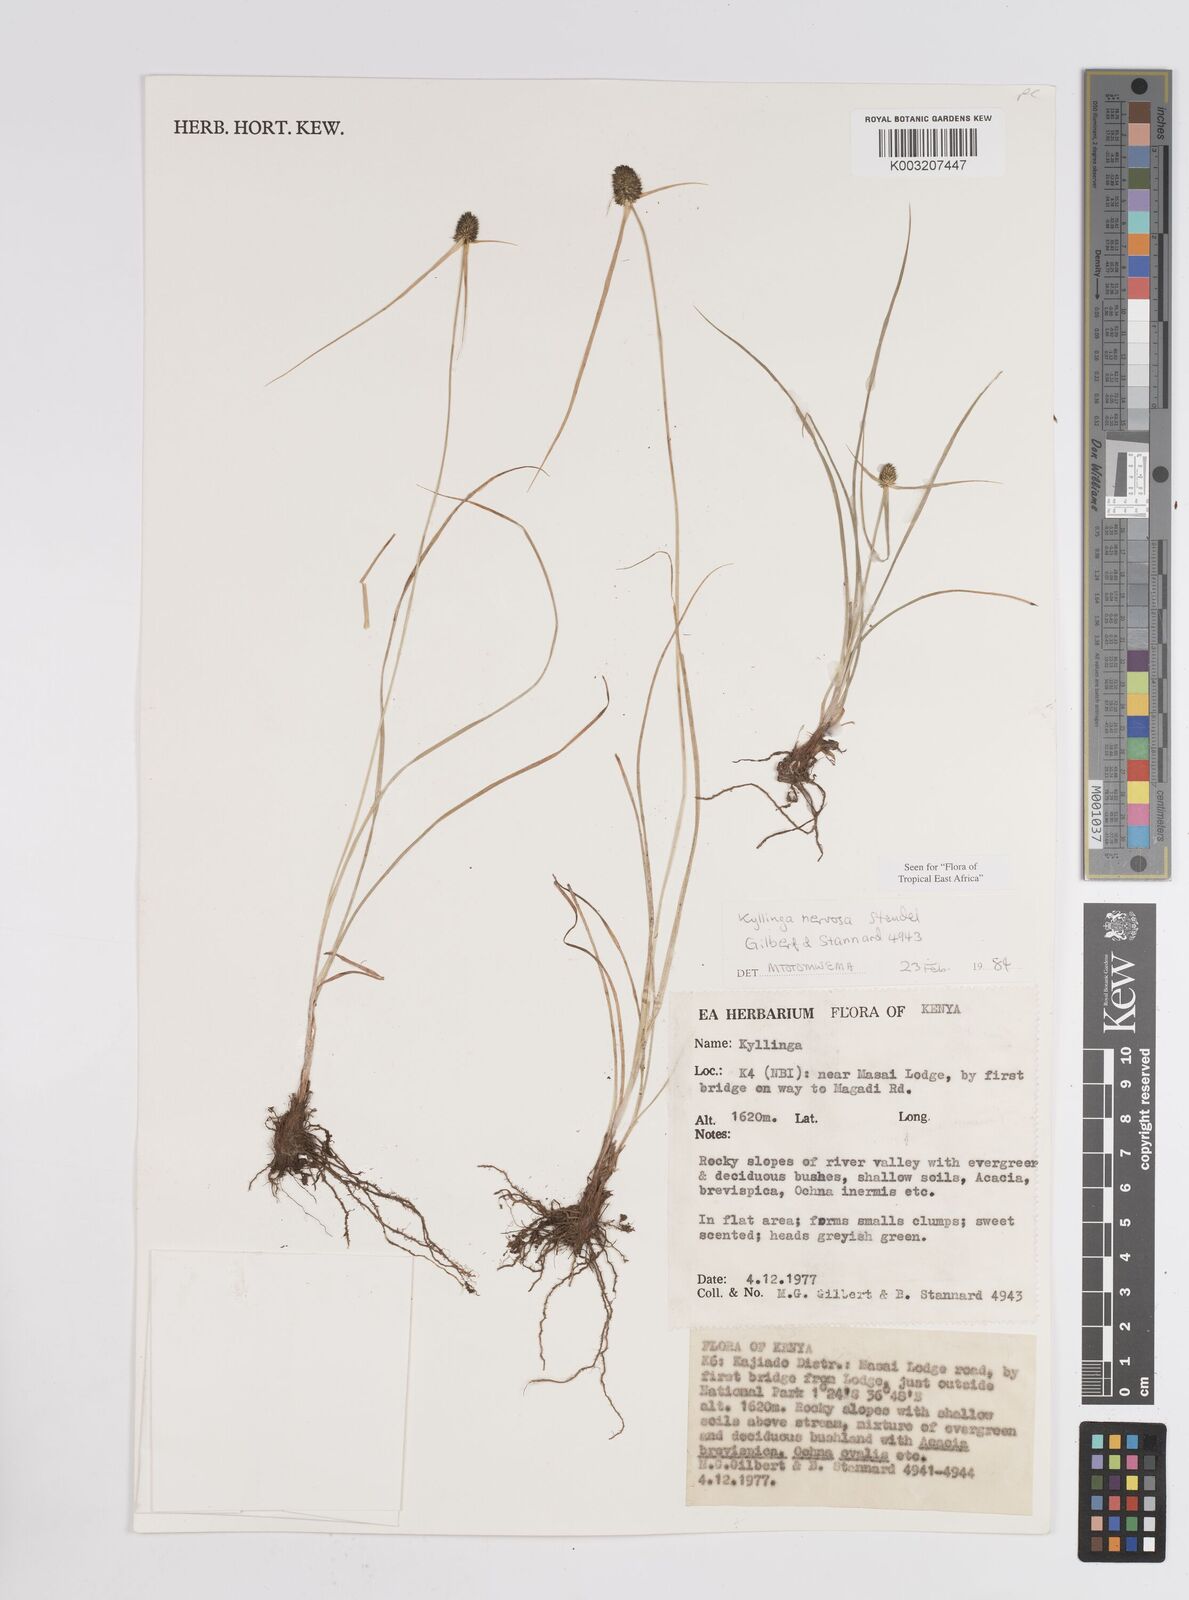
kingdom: Plantae
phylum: Tracheophyta
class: Liliopsida
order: Poales
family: Cyperaceae
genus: Cyperus
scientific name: Cyperus
